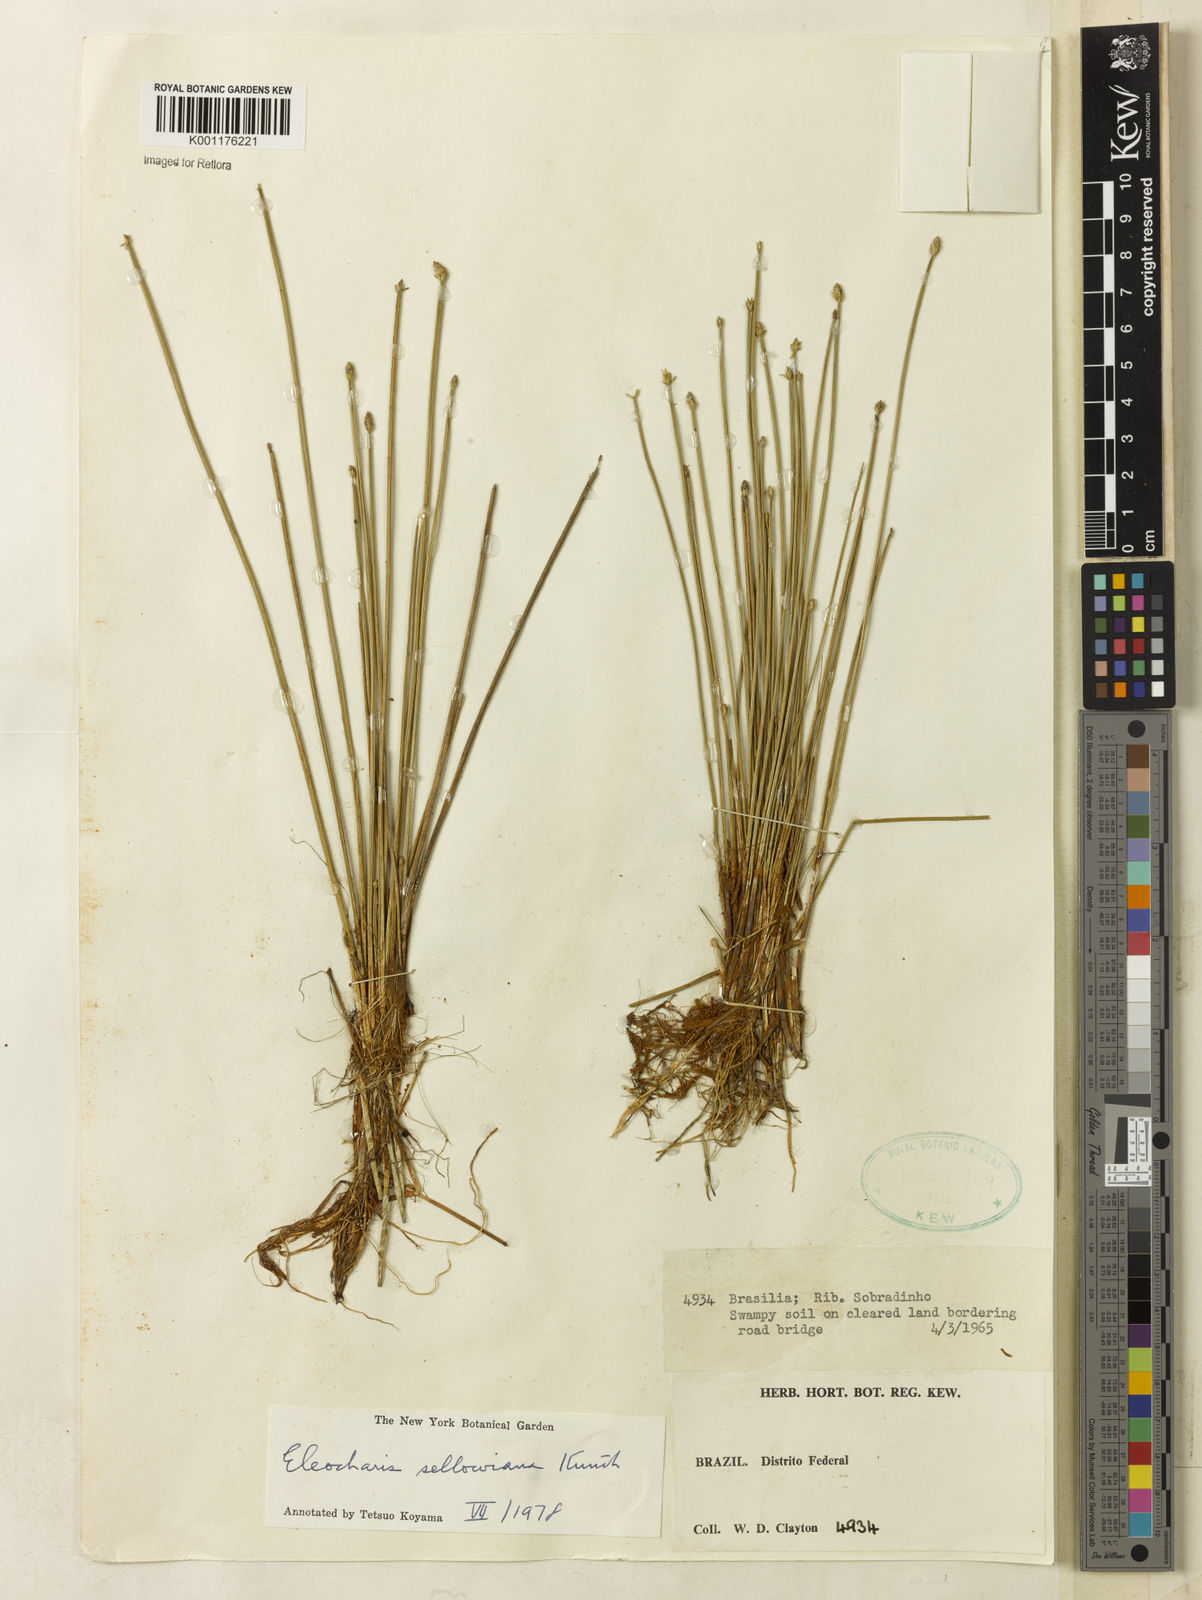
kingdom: Plantae
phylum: Tracheophyta
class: Liliopsida
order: Poales
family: Cyperaceae
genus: Eleocharis
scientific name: Eleocharis sellowiana
